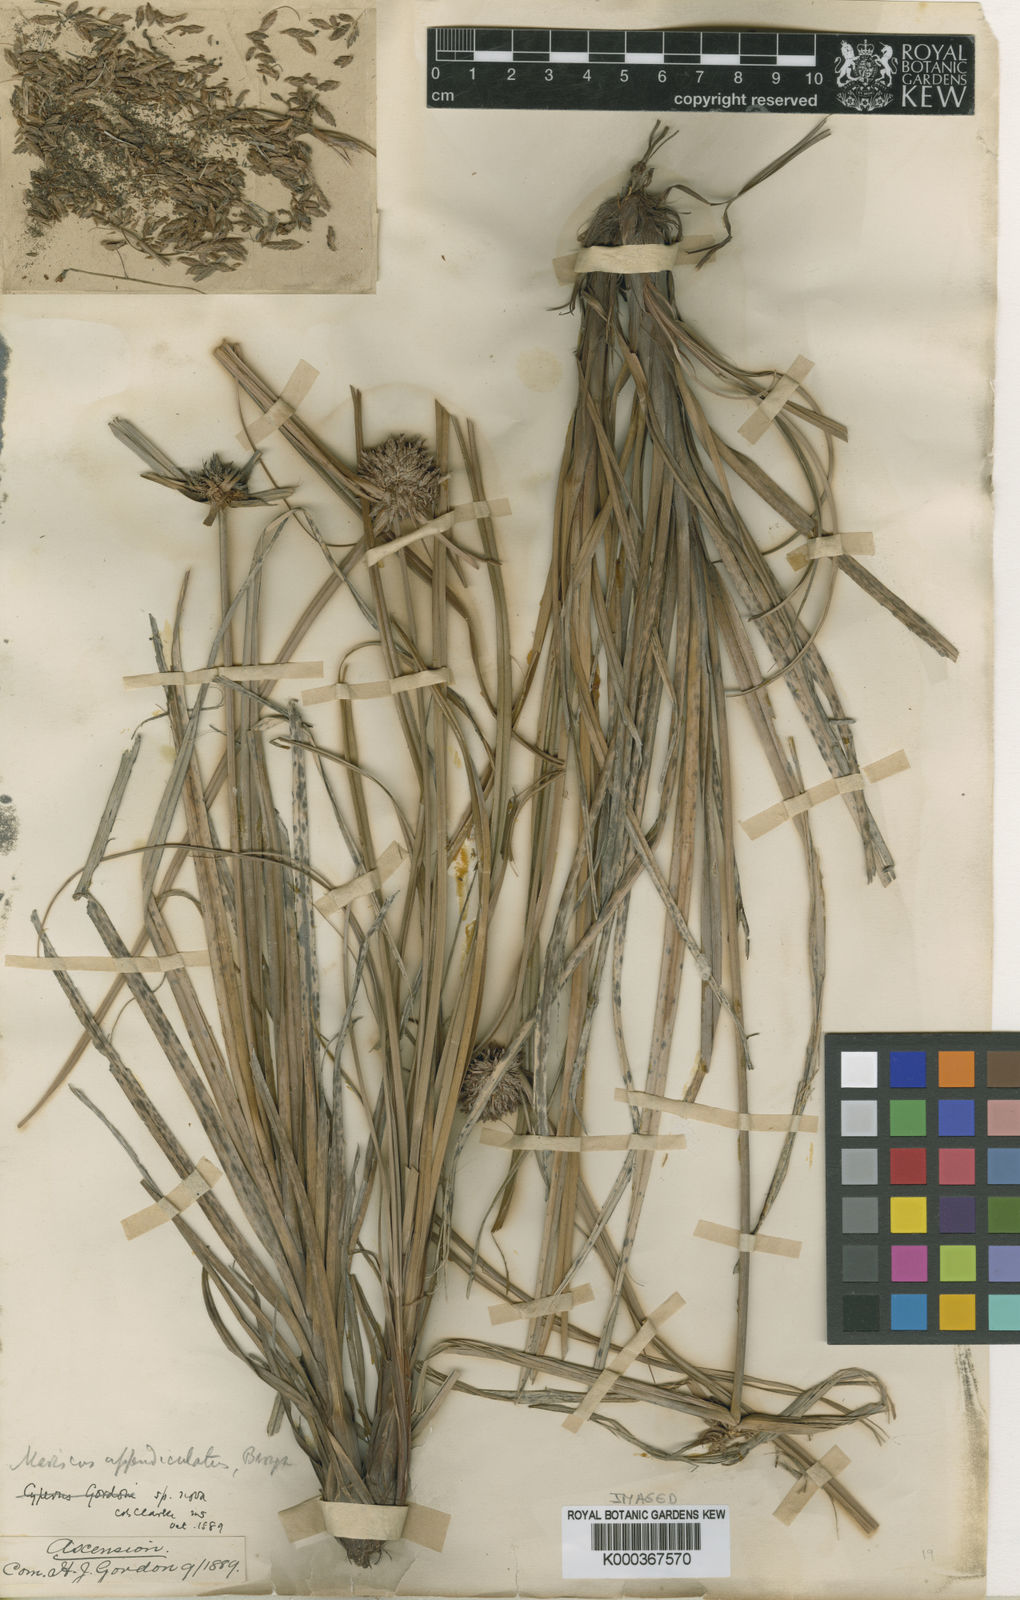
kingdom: Plantae
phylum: Tracheophyta
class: Liliopsida
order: Poales
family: Cyperaceae
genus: Cyperus
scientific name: Cyperus appendiculatus
